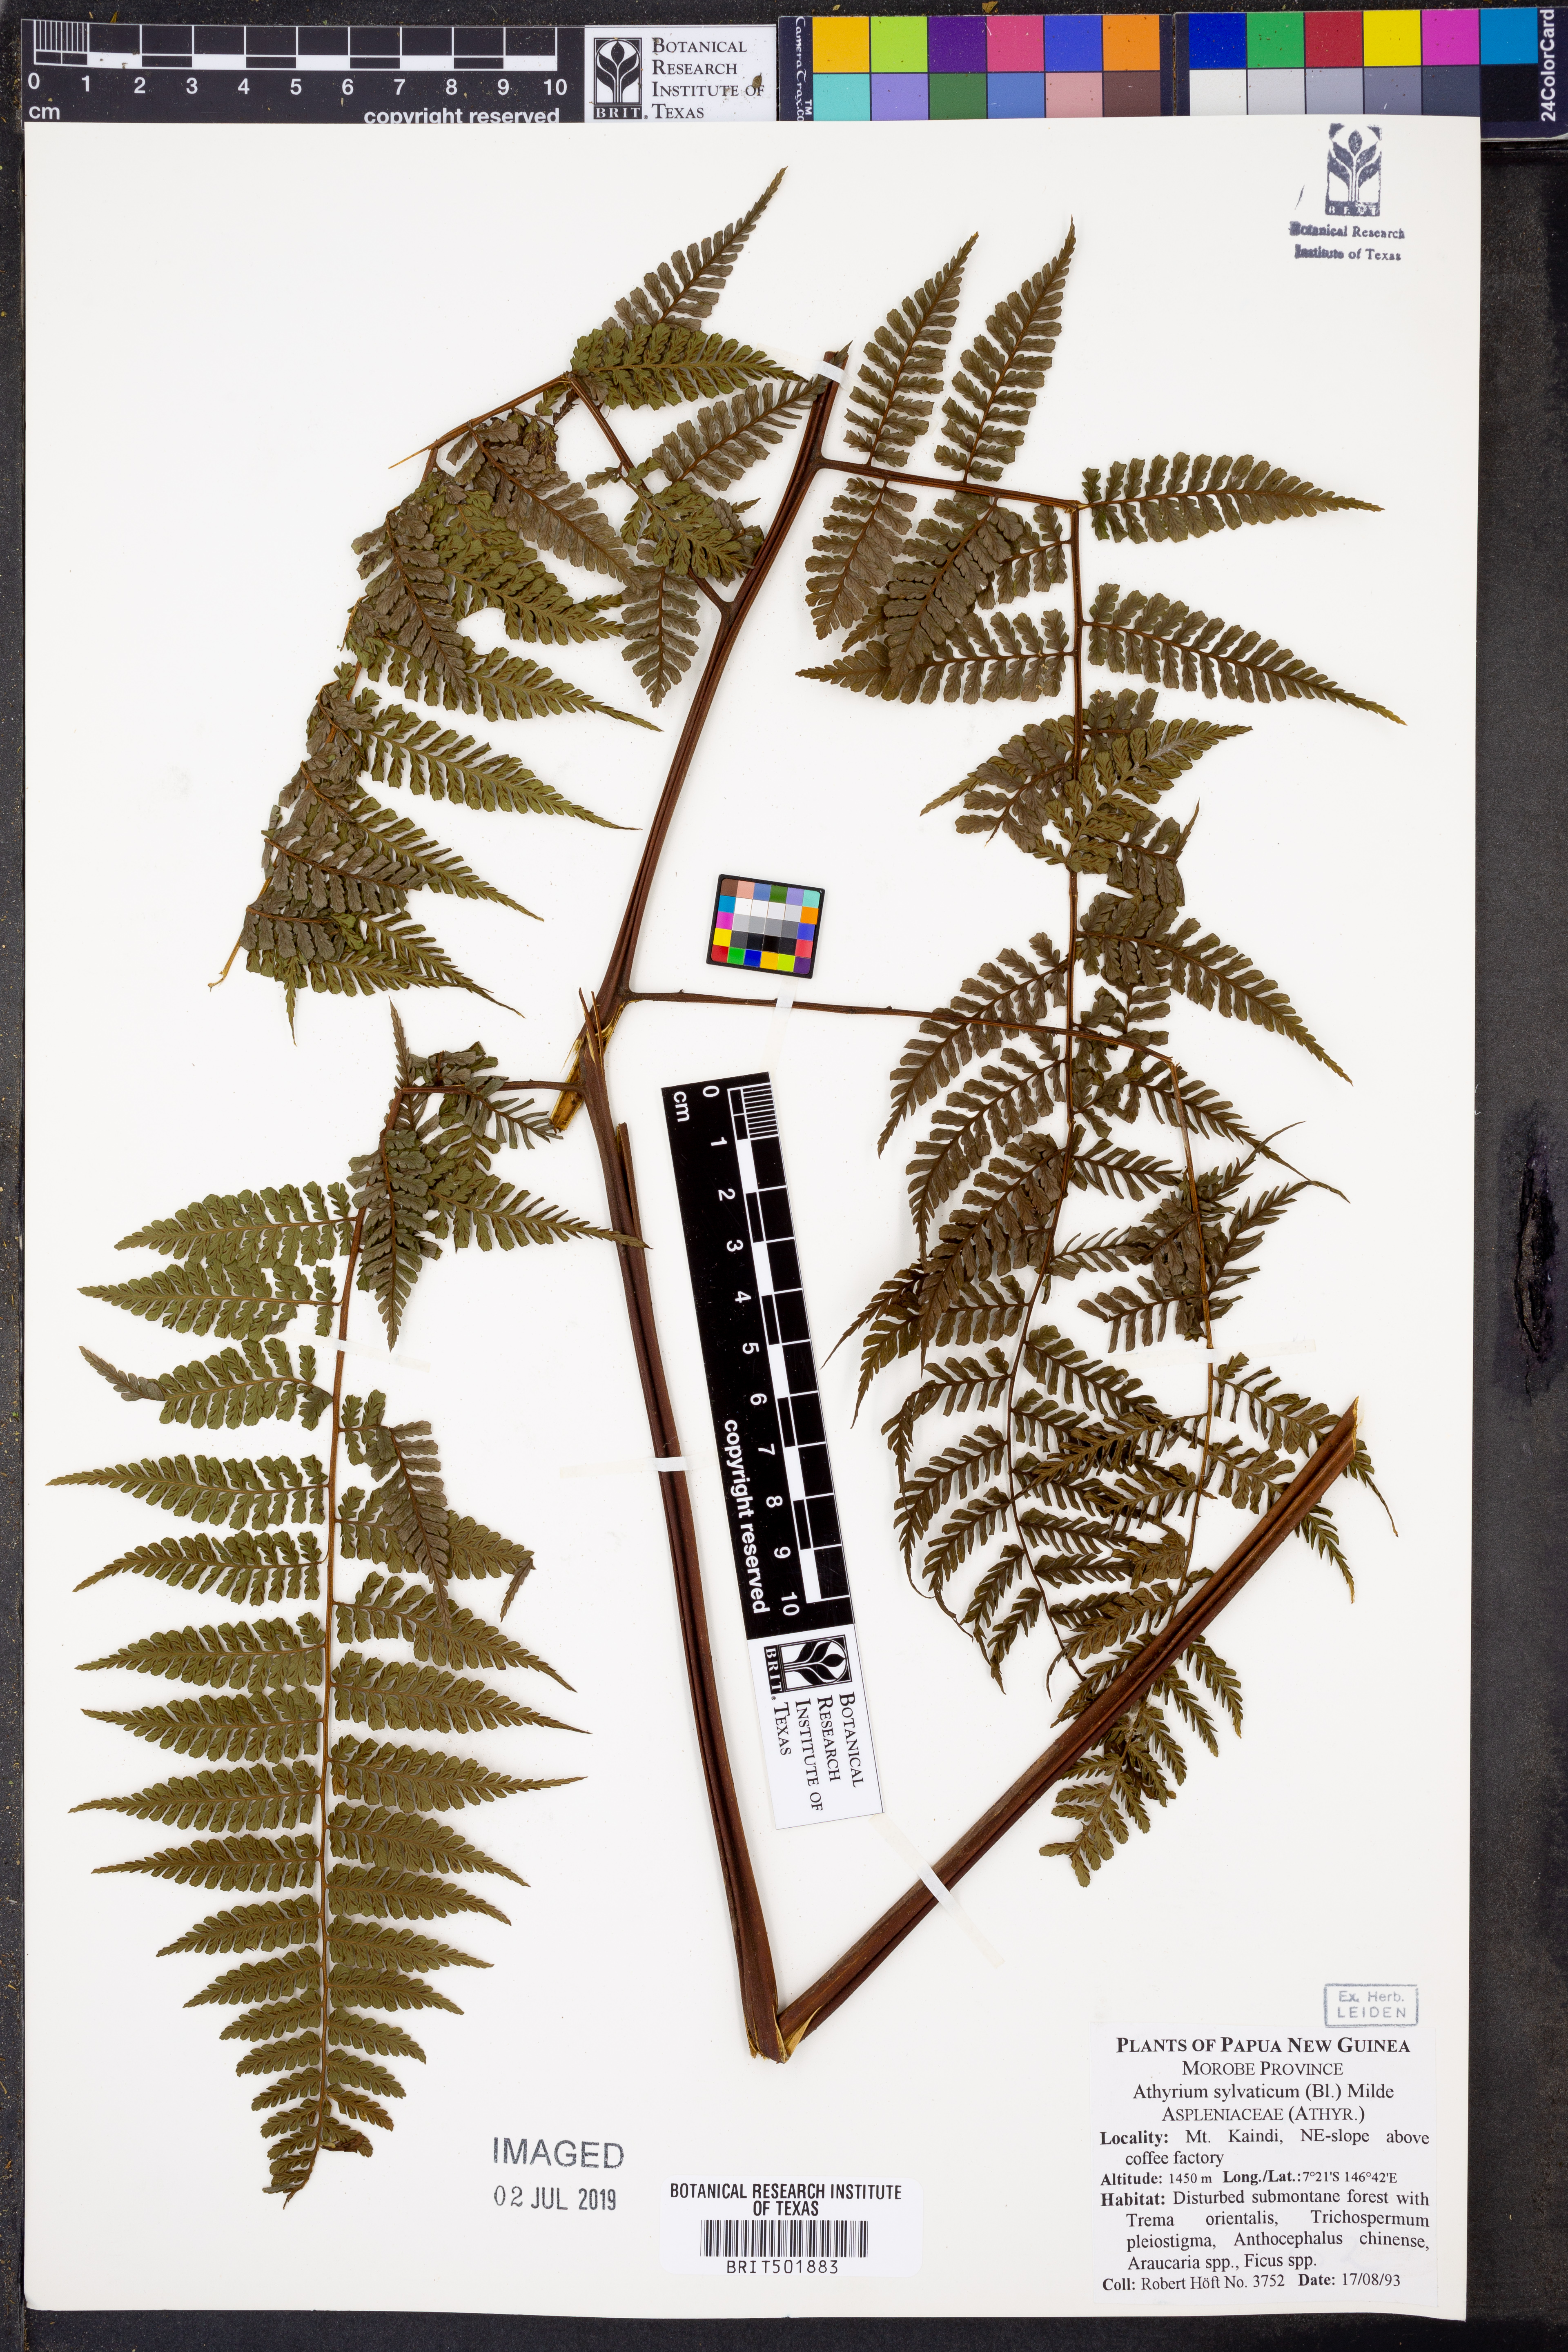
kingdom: Plantae
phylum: Tracheophyta
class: Polypodiopsida
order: Polypodiales
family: Athyriaceae
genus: Diplazium
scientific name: Diplazium sylvaticum
